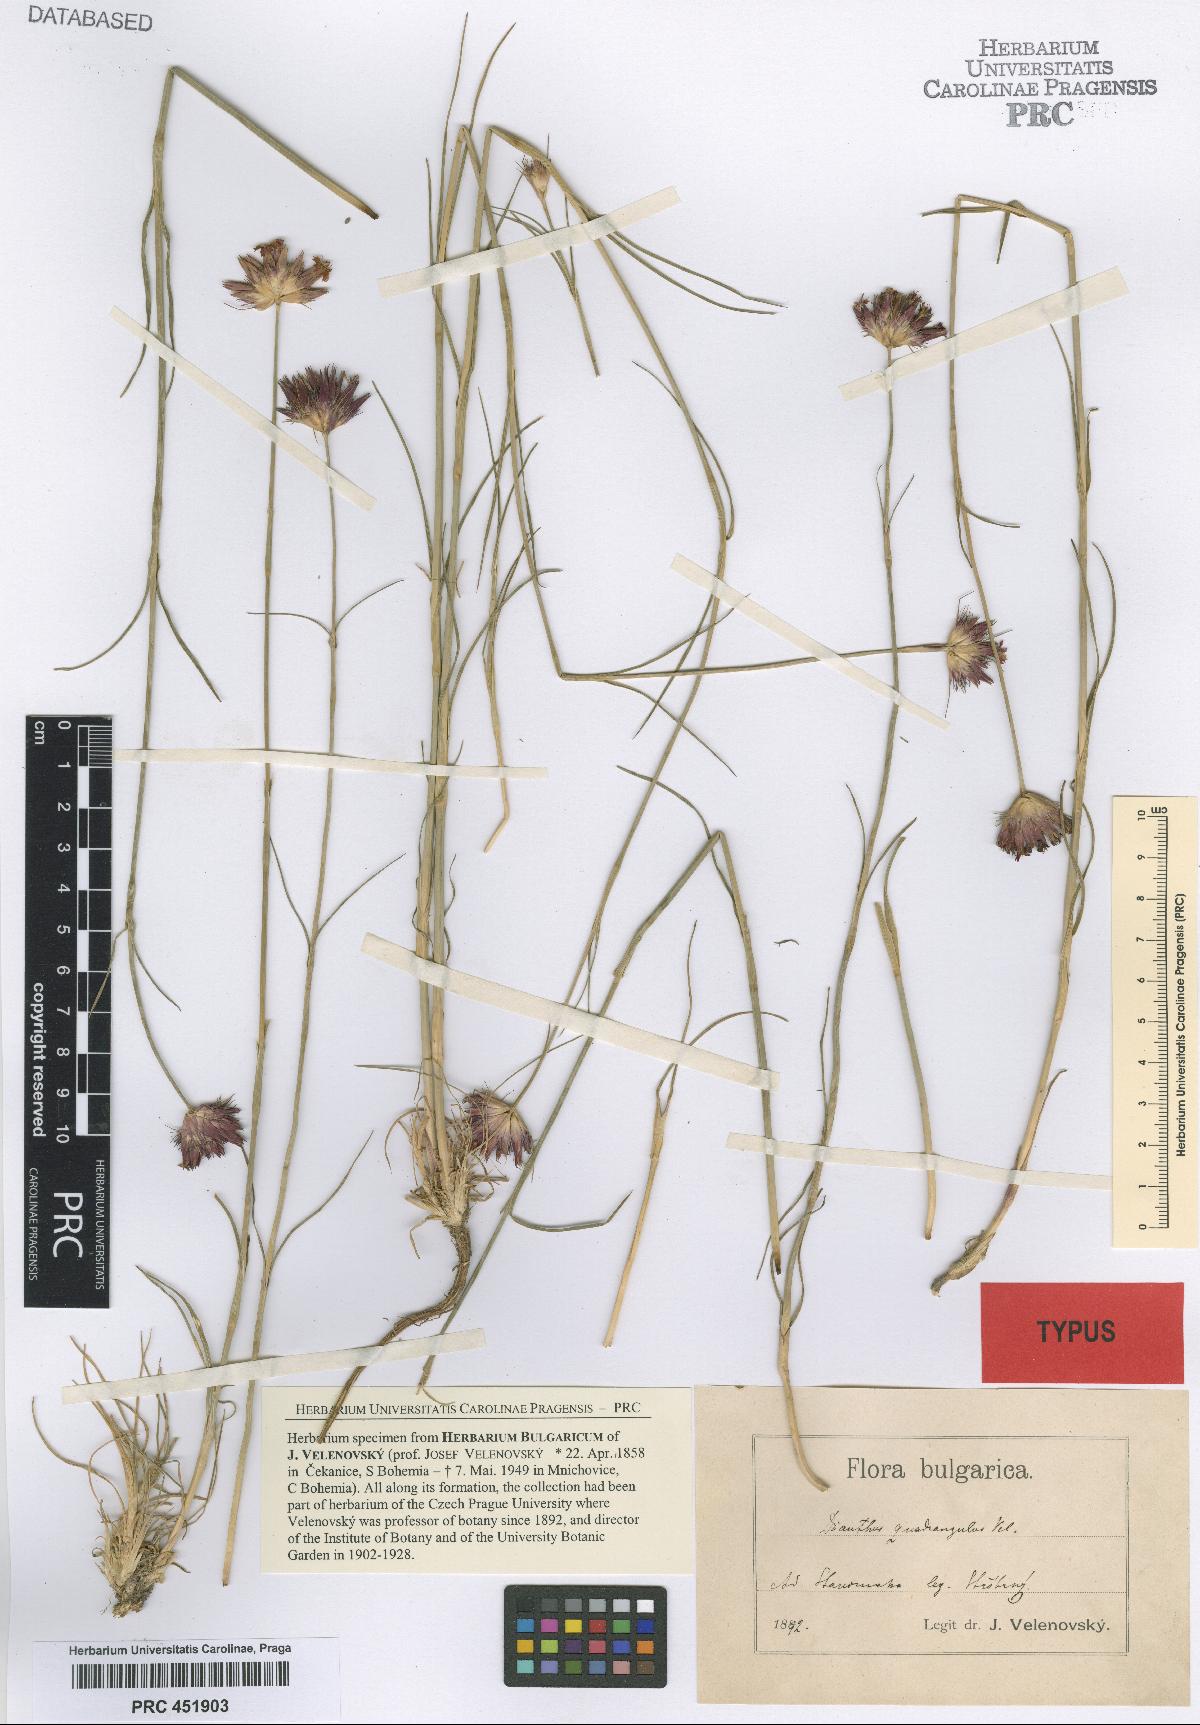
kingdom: Plantae
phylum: Tracheophyta
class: Magnoliopsida
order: Caryophyllales
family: Caryophyllaceae
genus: Dianthus
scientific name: Dianthus cruentus
